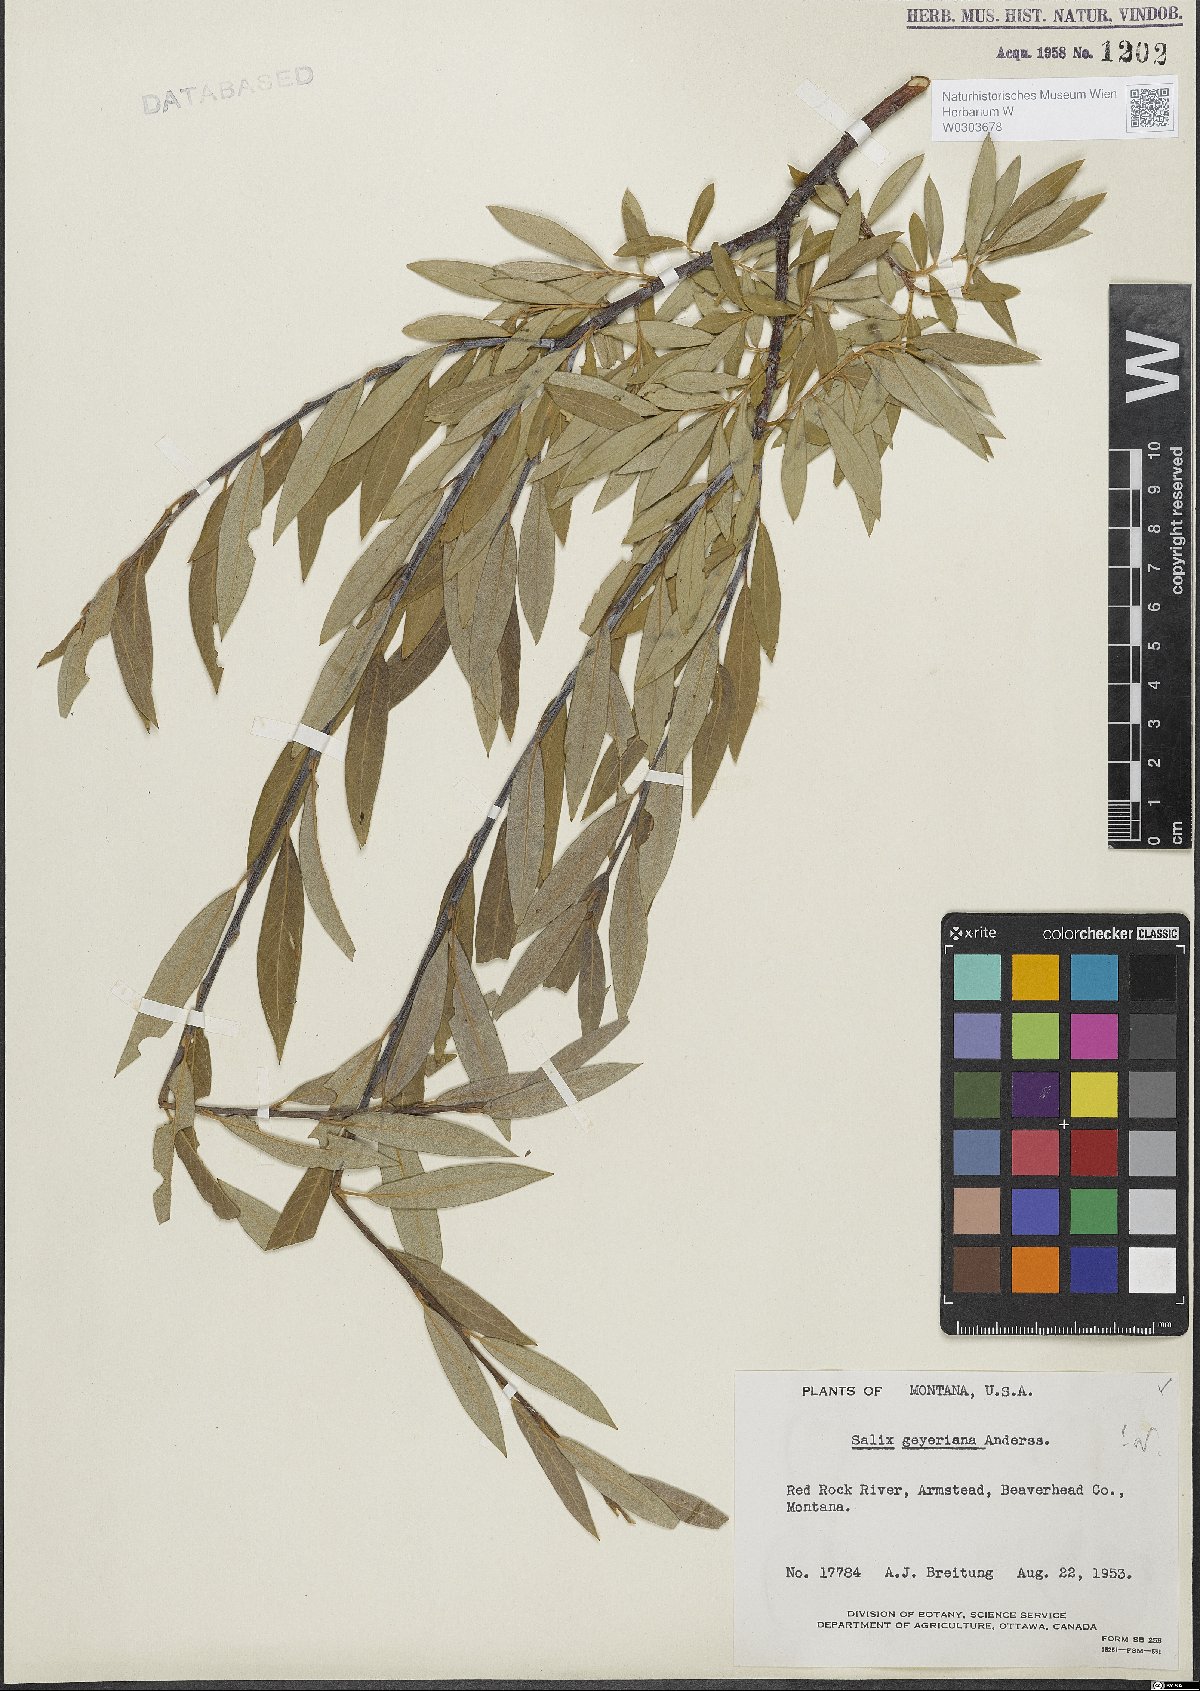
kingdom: Plantae
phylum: Tracheophyta
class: Magnoliopsida
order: Malpighiales
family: Salicaceae
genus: Salix
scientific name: Salix geyeriana
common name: Geyer's willow
